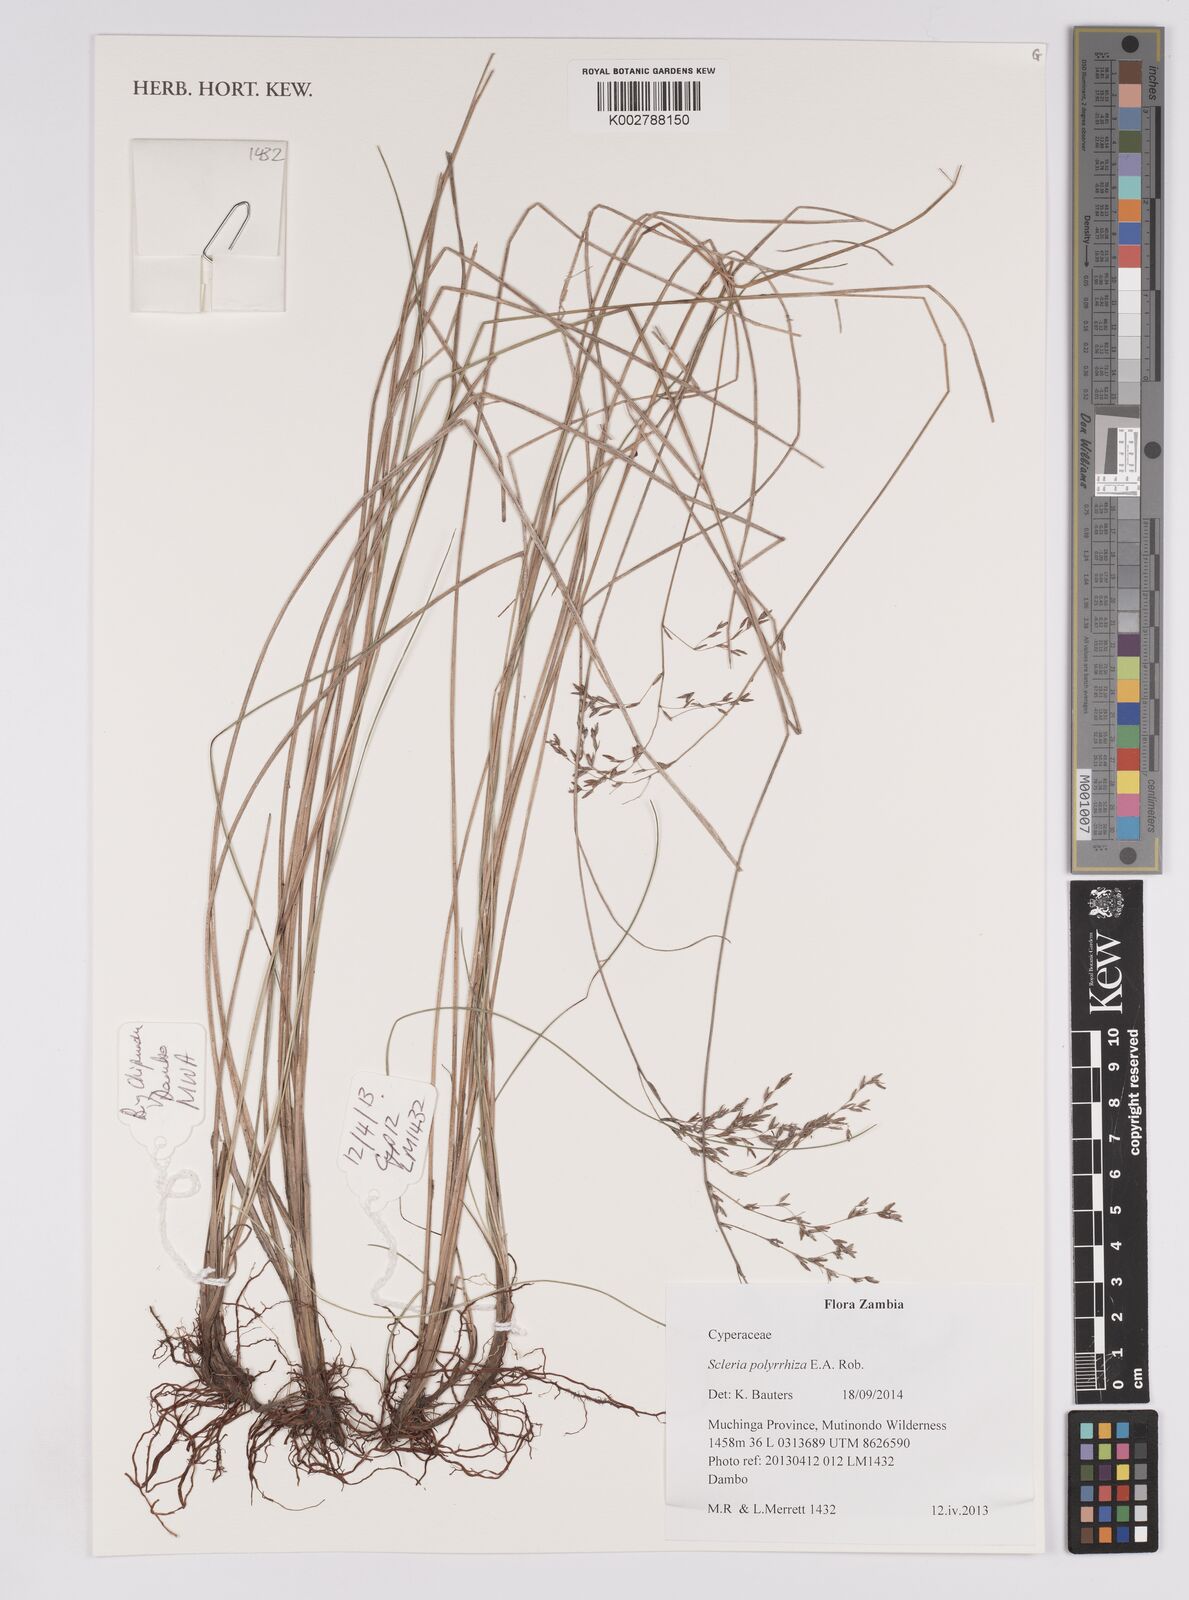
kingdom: Plantae
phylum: Tracheophyta
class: Liliopsida
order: Poales
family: Cyperaceae
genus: Scleria
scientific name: Scleria polyrrhiza
